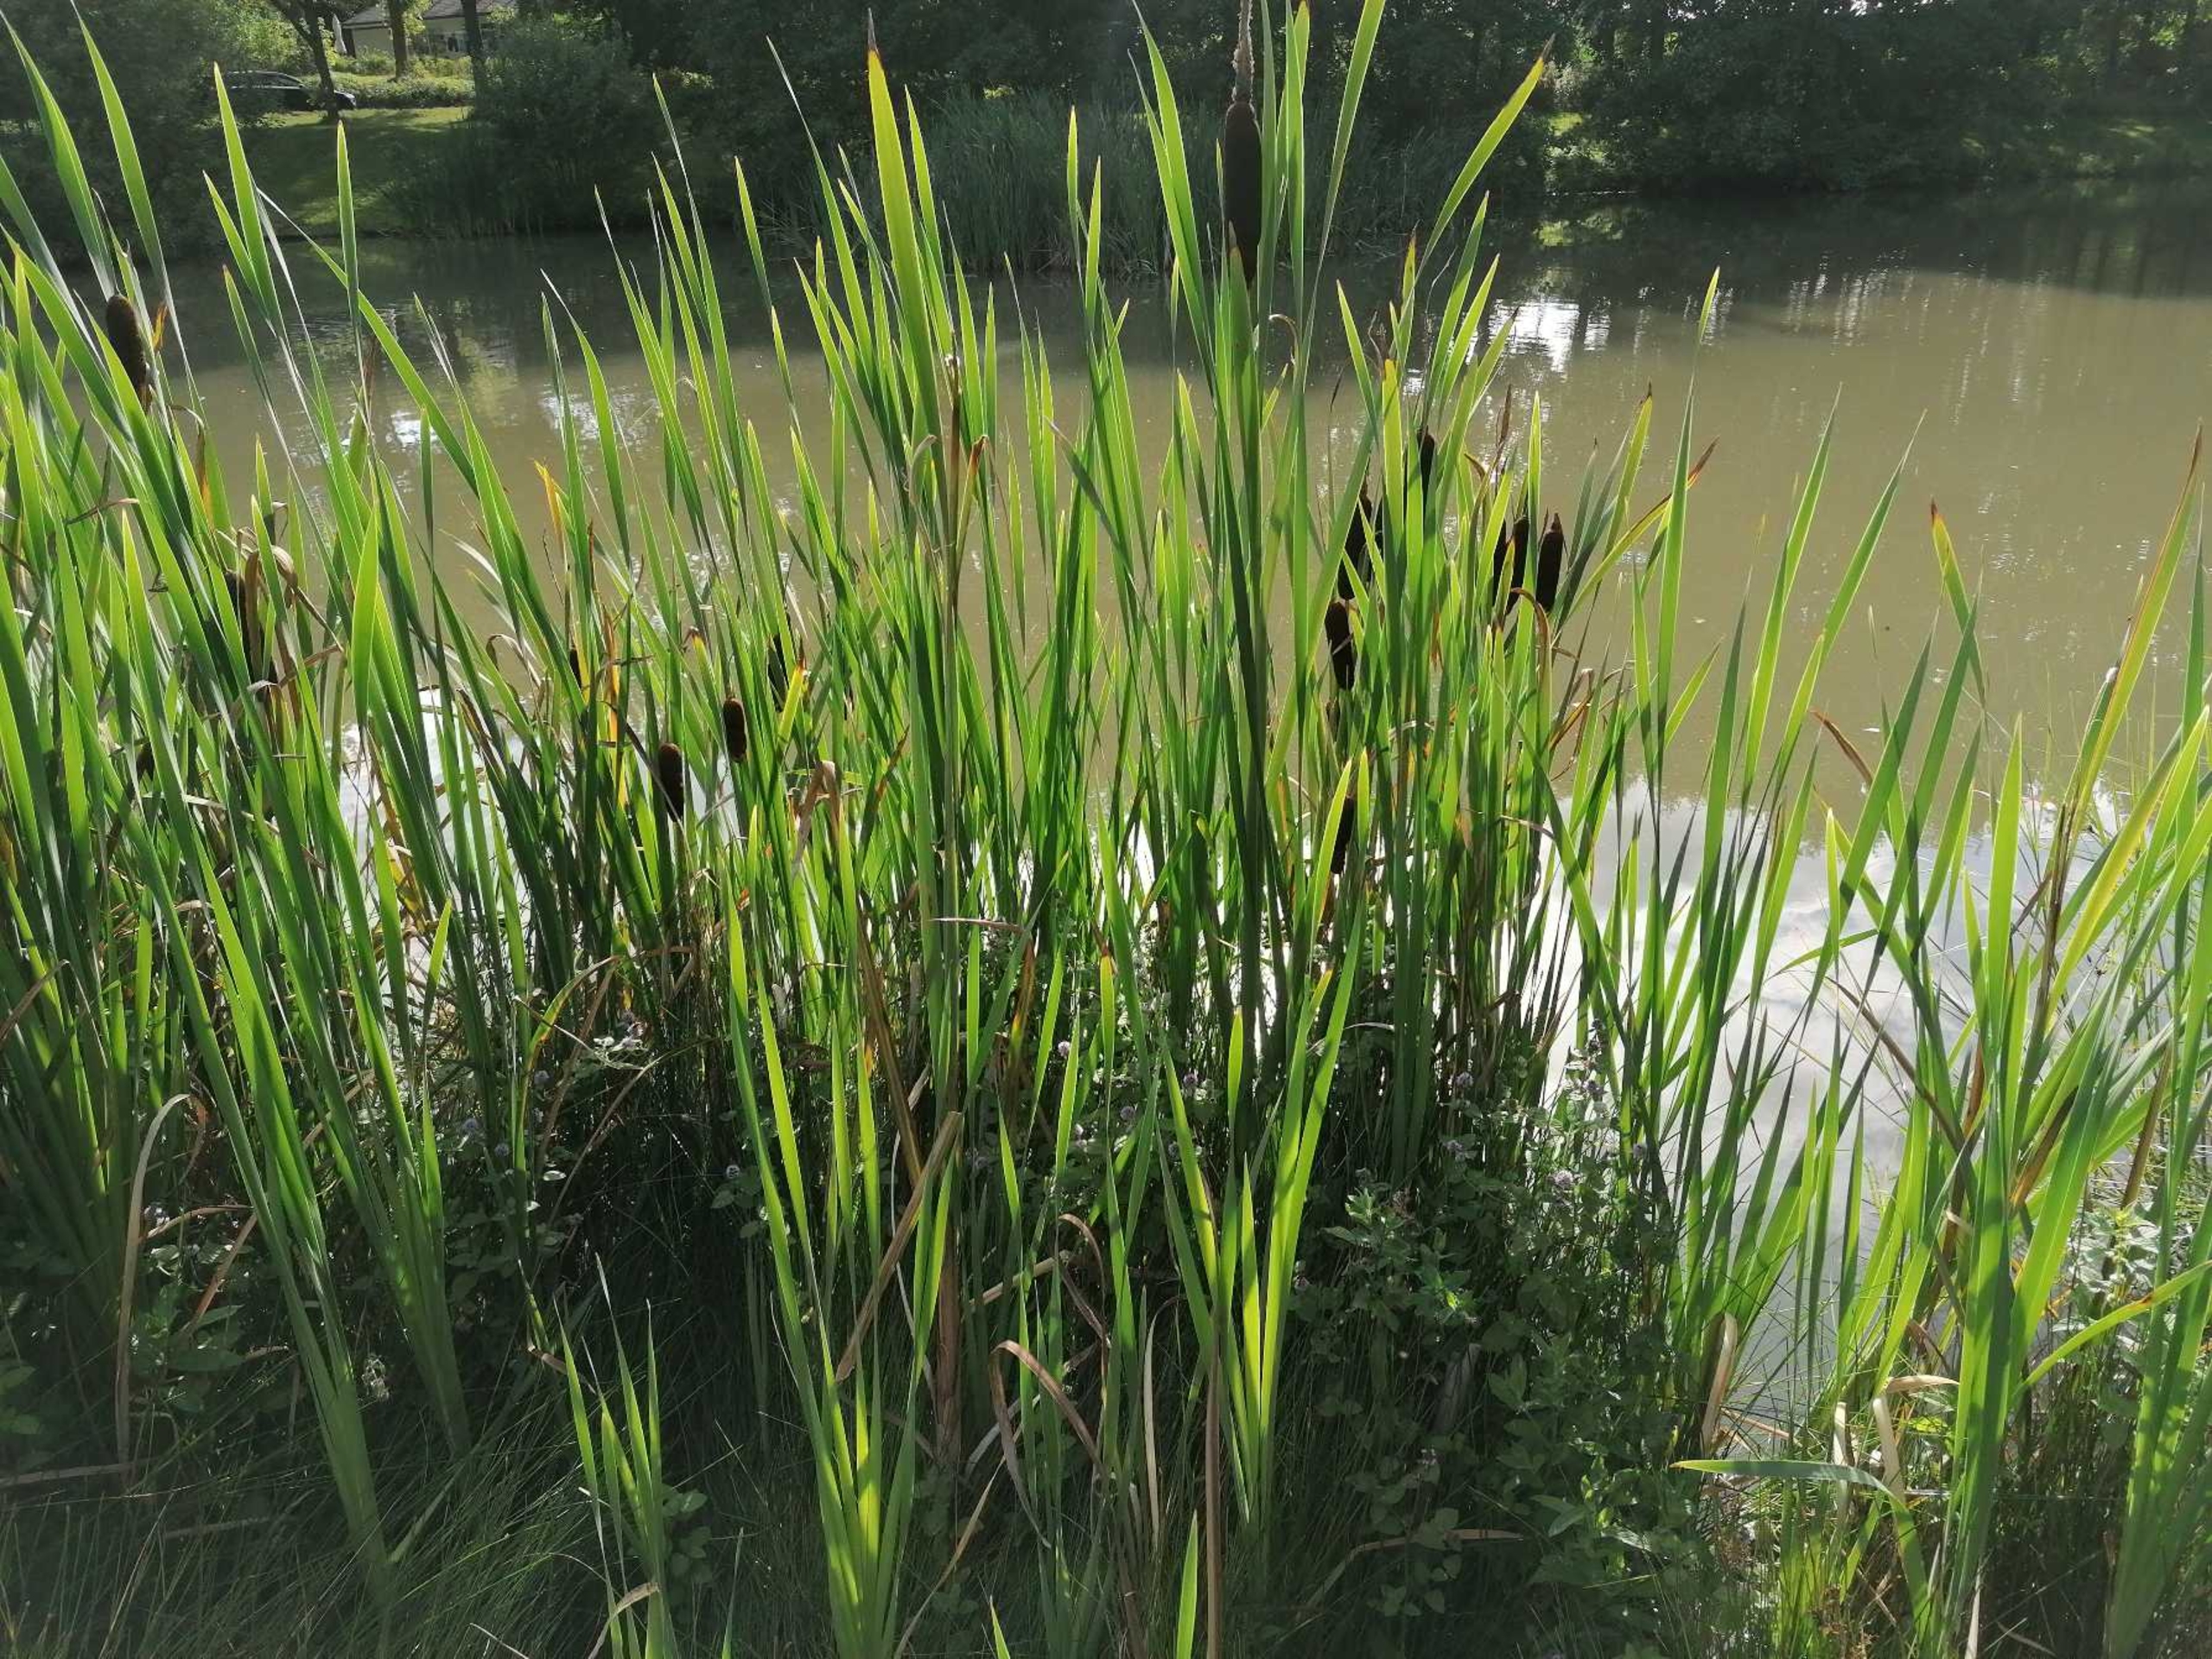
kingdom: Plantae
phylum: Tracheophyta
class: Liliopsida
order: Poales
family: Typhaceae
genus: Typha
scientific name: Typha latifolia
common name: Bredbladet dunhammer
